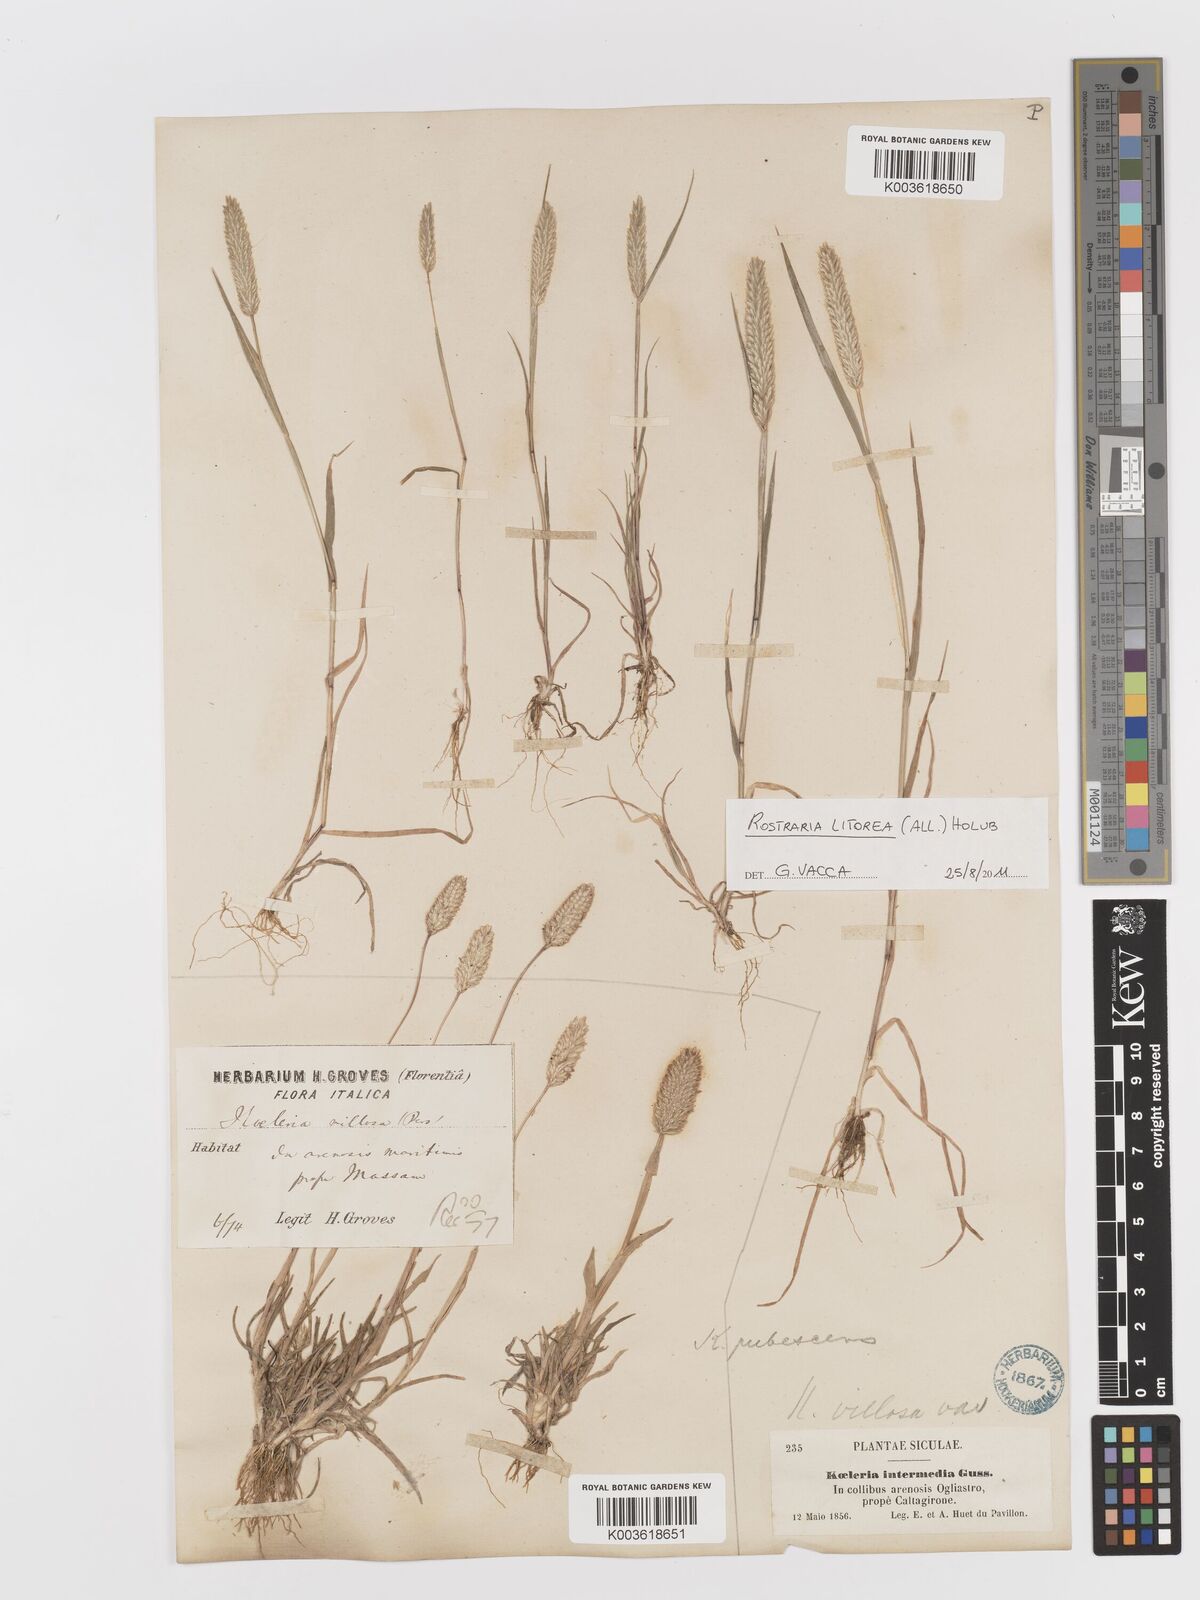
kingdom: Plantae
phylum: Tracheophyta
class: Liliopsida
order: Poales
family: Poaceae
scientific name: Poaceae
